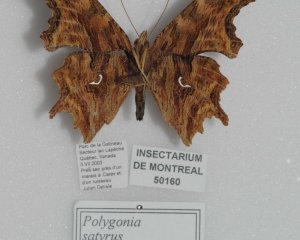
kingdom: Animalia
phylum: Arthropoda
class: Insecta
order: Lepidoptera
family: Nymphalidae
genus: Polygonia
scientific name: Polygonia satyrus
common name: Satyr Comma
